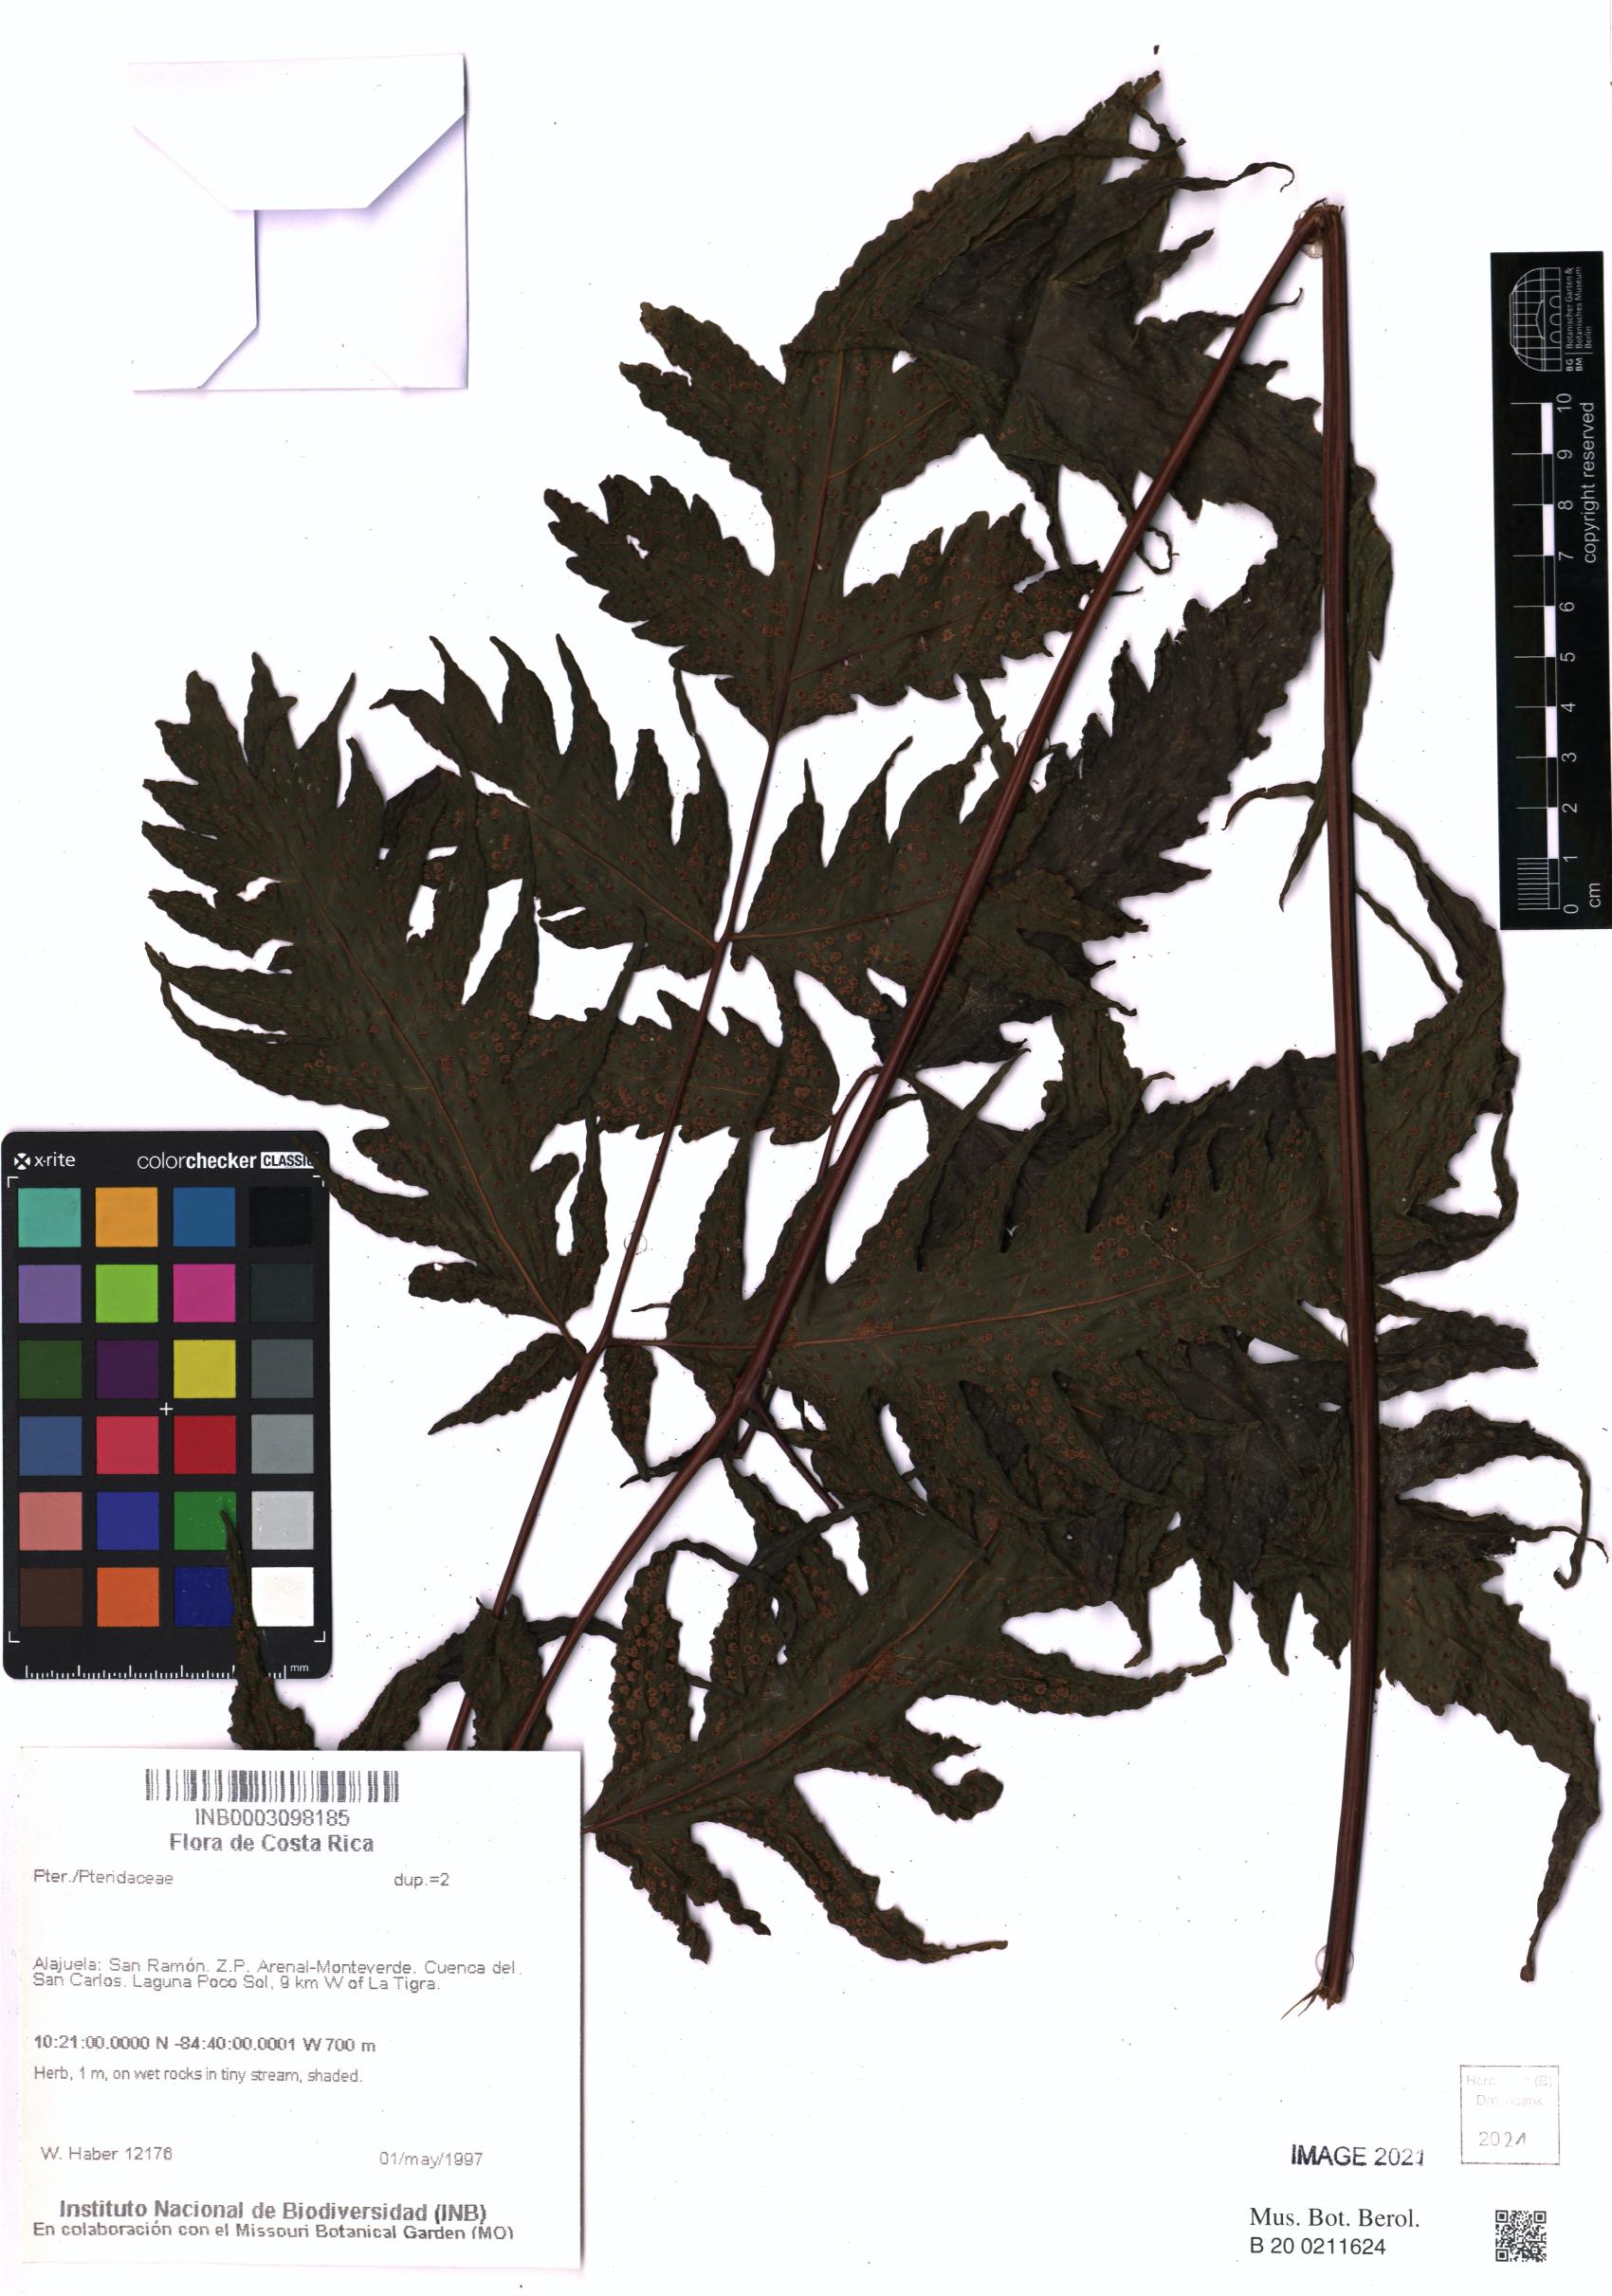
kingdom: Plantae
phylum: Tracheophyta
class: Polypodiopsida
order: Polypodiales
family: Pteridaceae
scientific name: Pteridaceae
